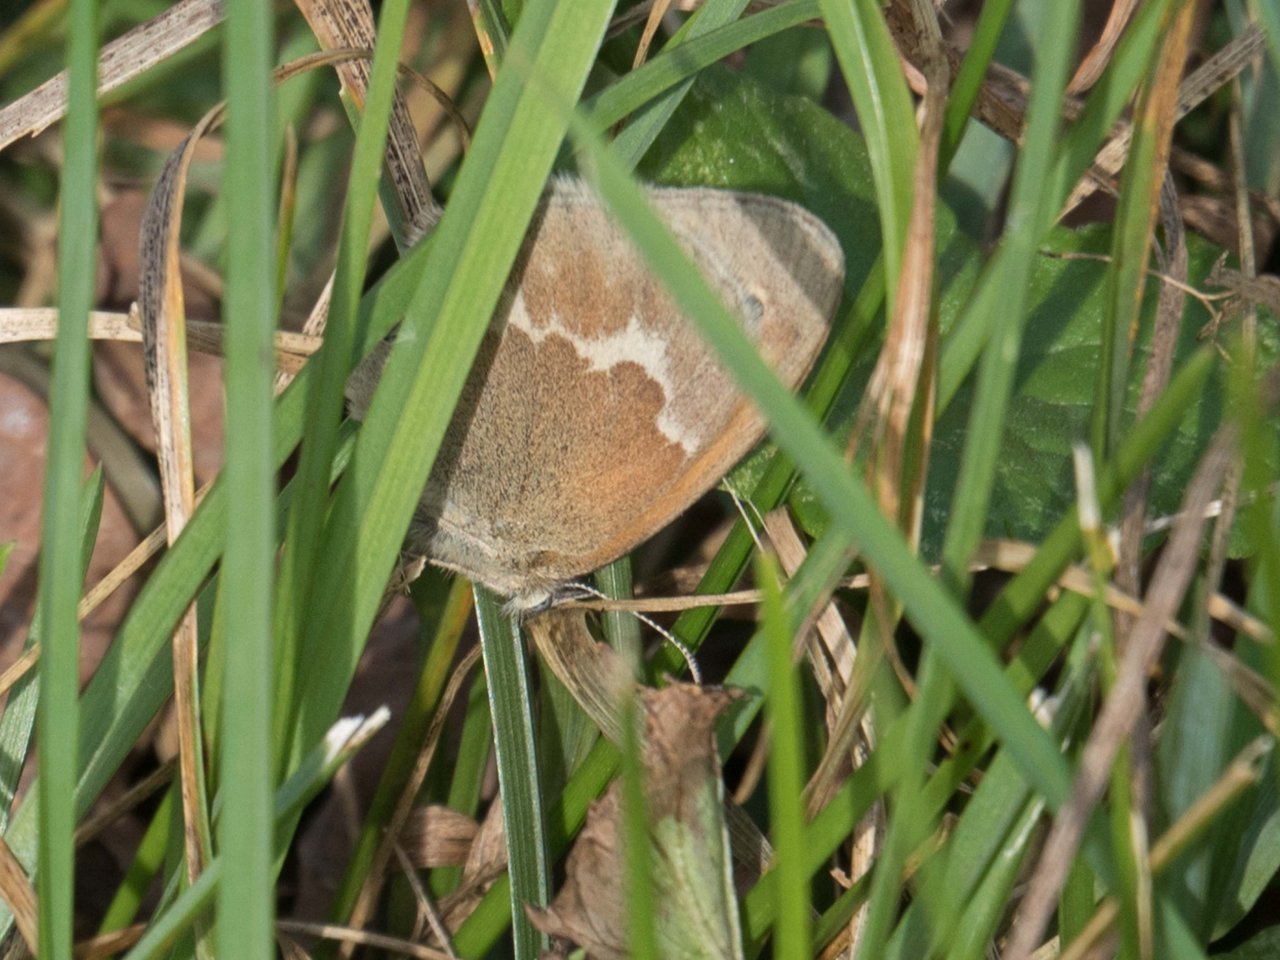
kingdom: Animalia
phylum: Arthropoda
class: Insecta
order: Lepidoptera
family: Nymphalidae
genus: Coenonympha
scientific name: Coenonympha tullia
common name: Large Heath
